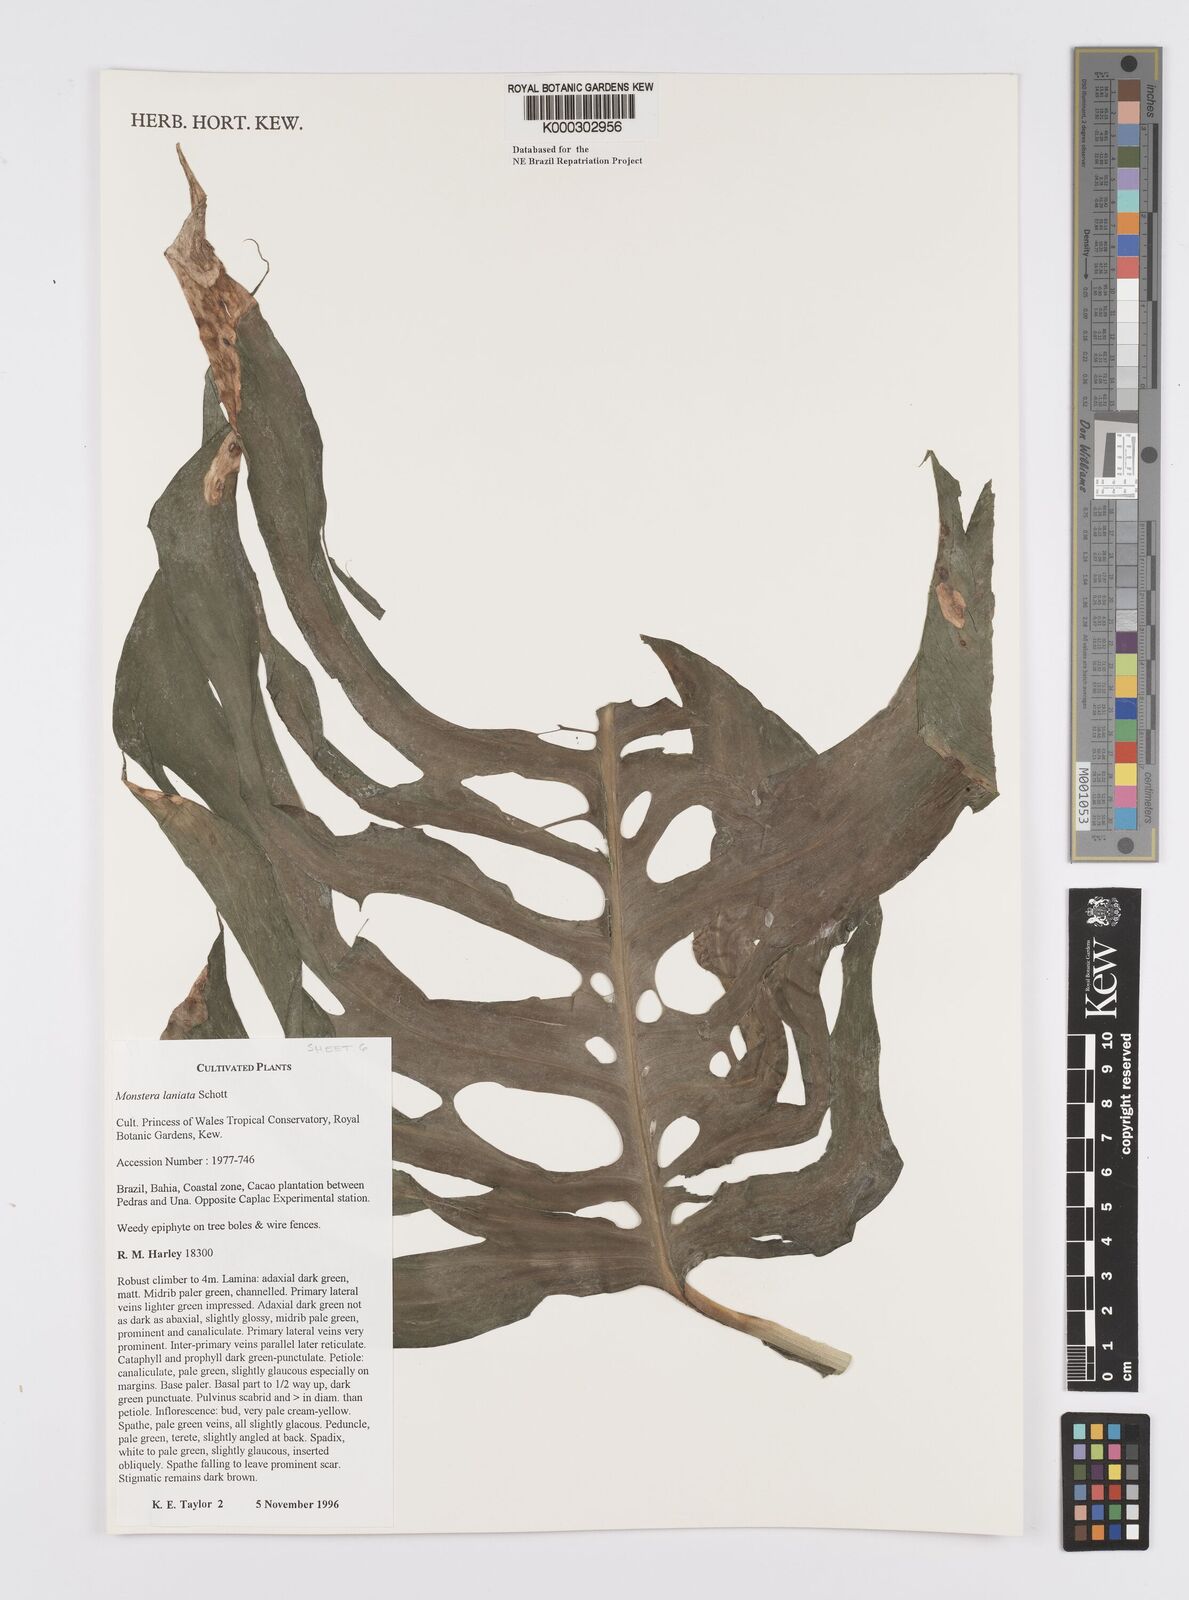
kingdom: Plantae
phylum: Tracheophyta
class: Liliopsida
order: Alismatales
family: Araceae
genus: Monstera
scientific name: Monstera adansonii
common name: Tarovine
